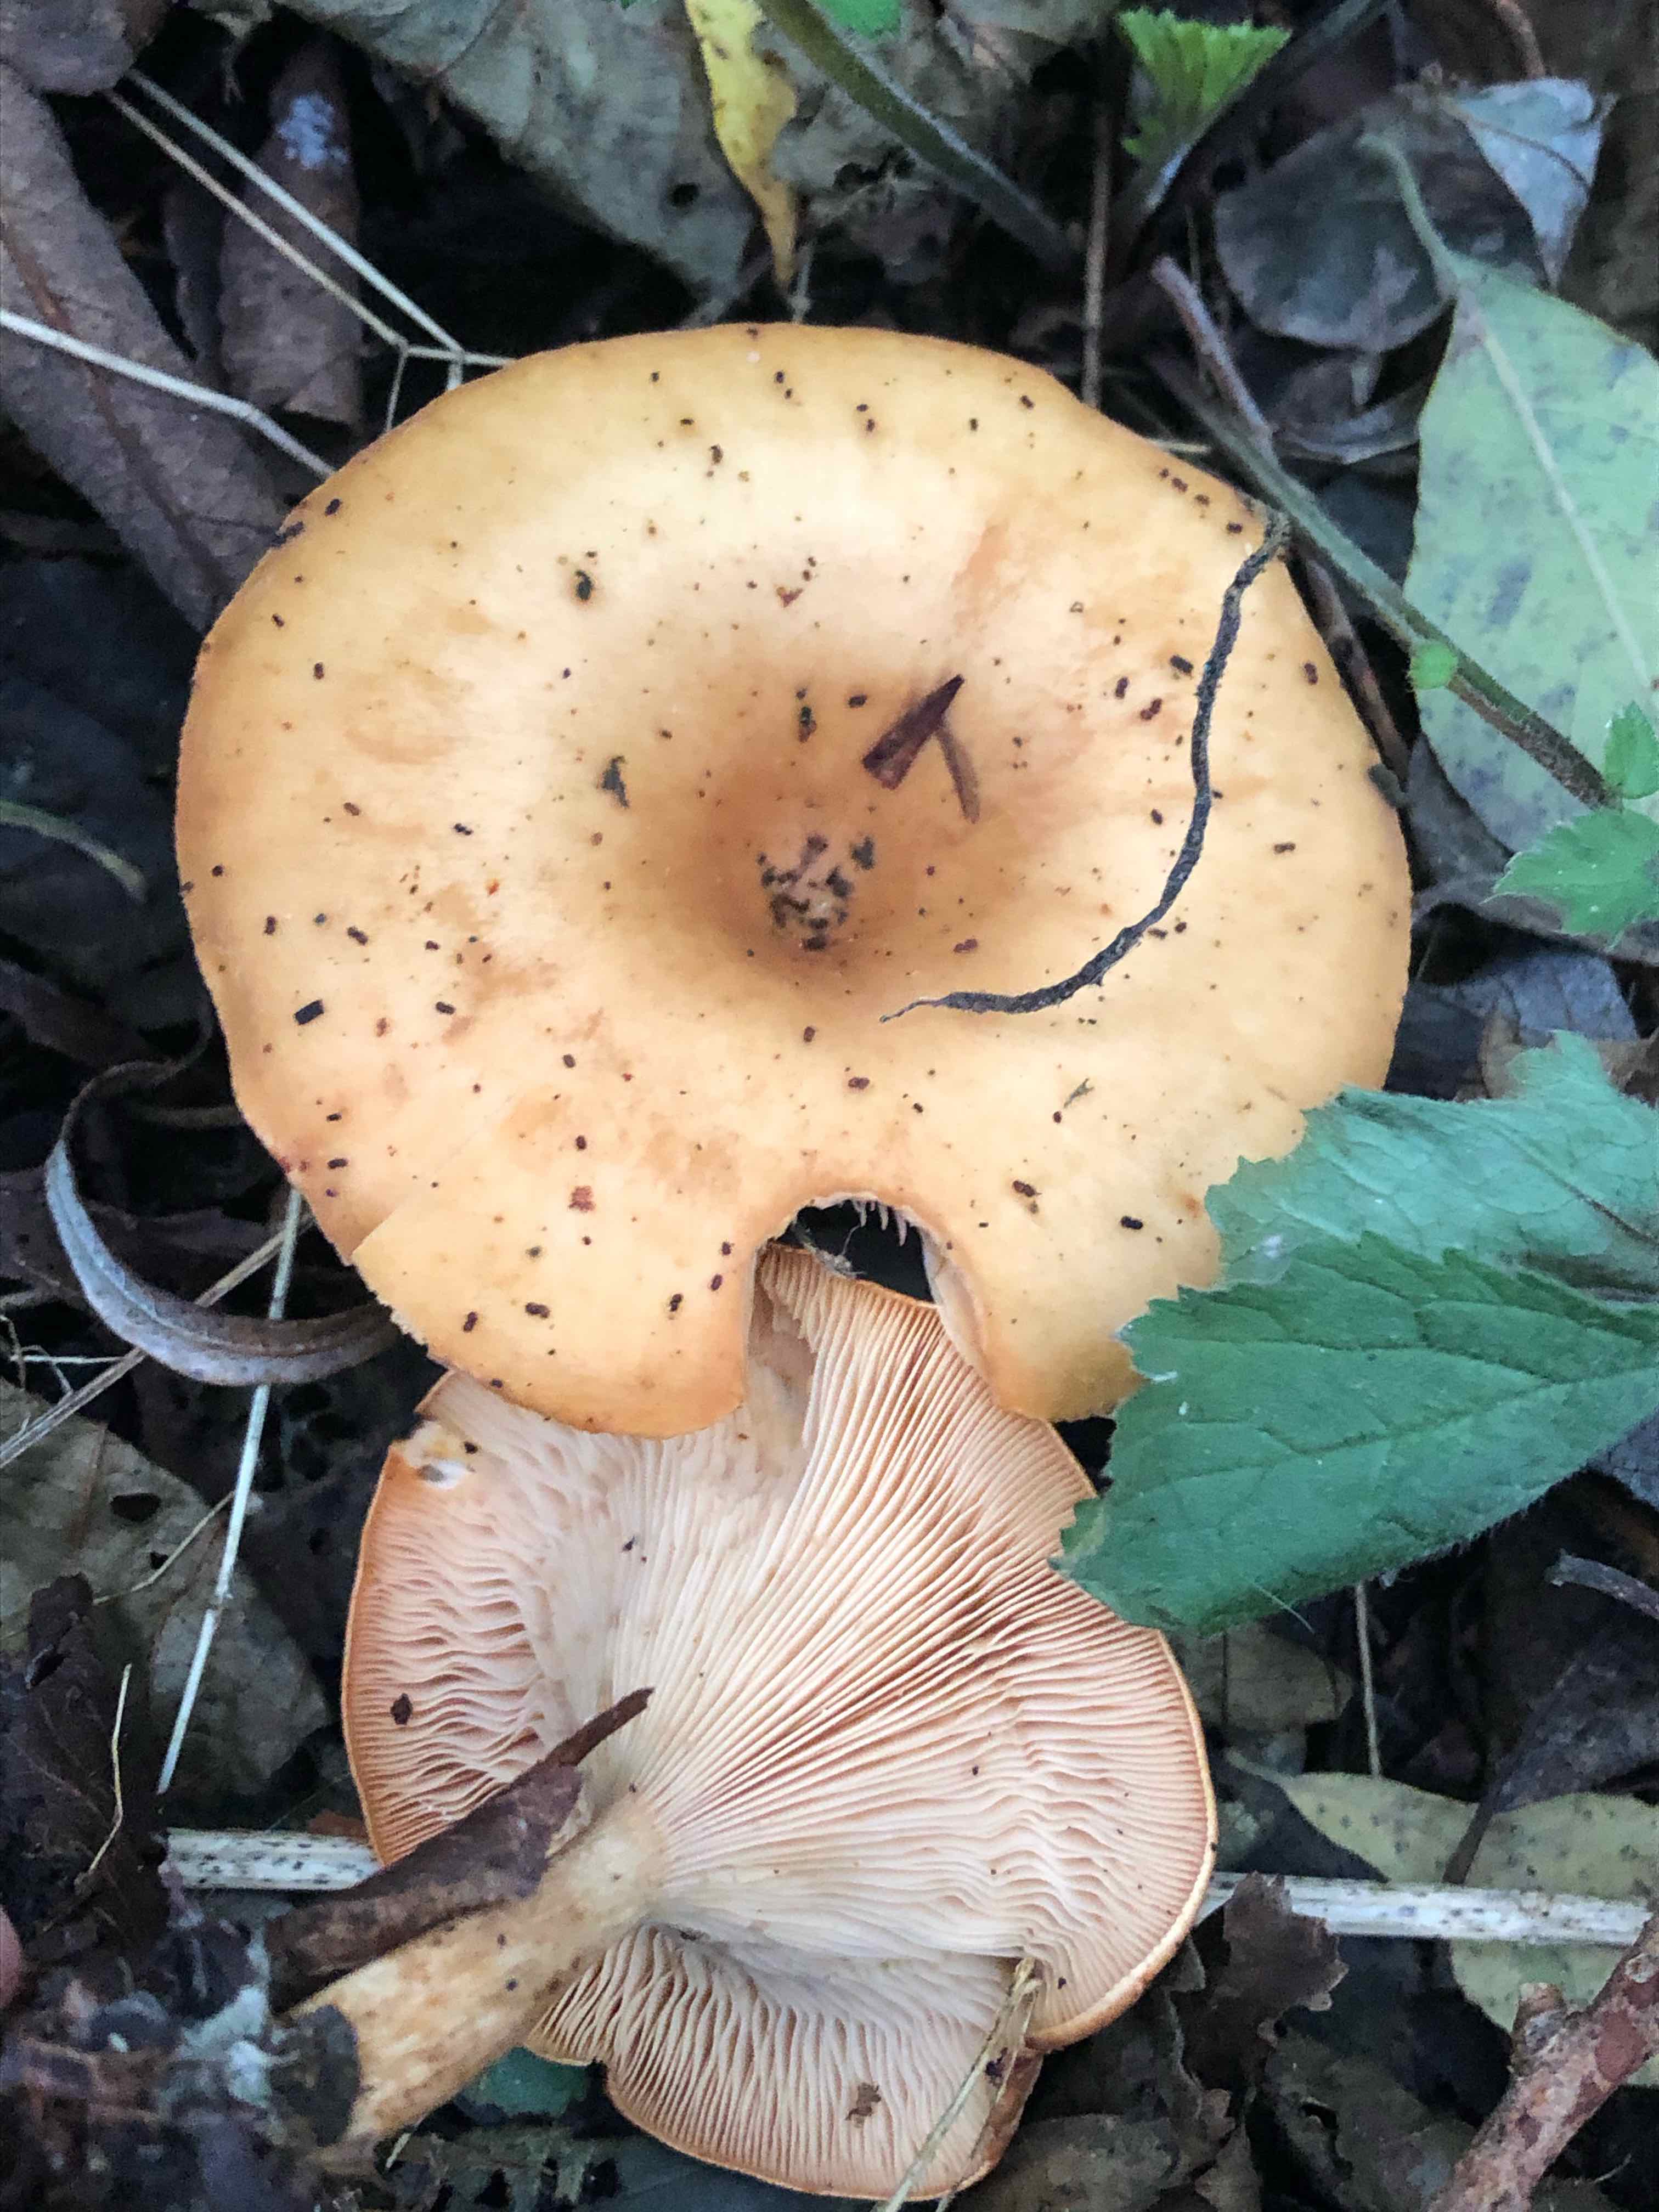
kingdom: Fungi
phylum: Basidiomycota
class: Agaricomycetes
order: Agaricales
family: Tricholomataceae
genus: Paralepista
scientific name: Paralepista flaccida
